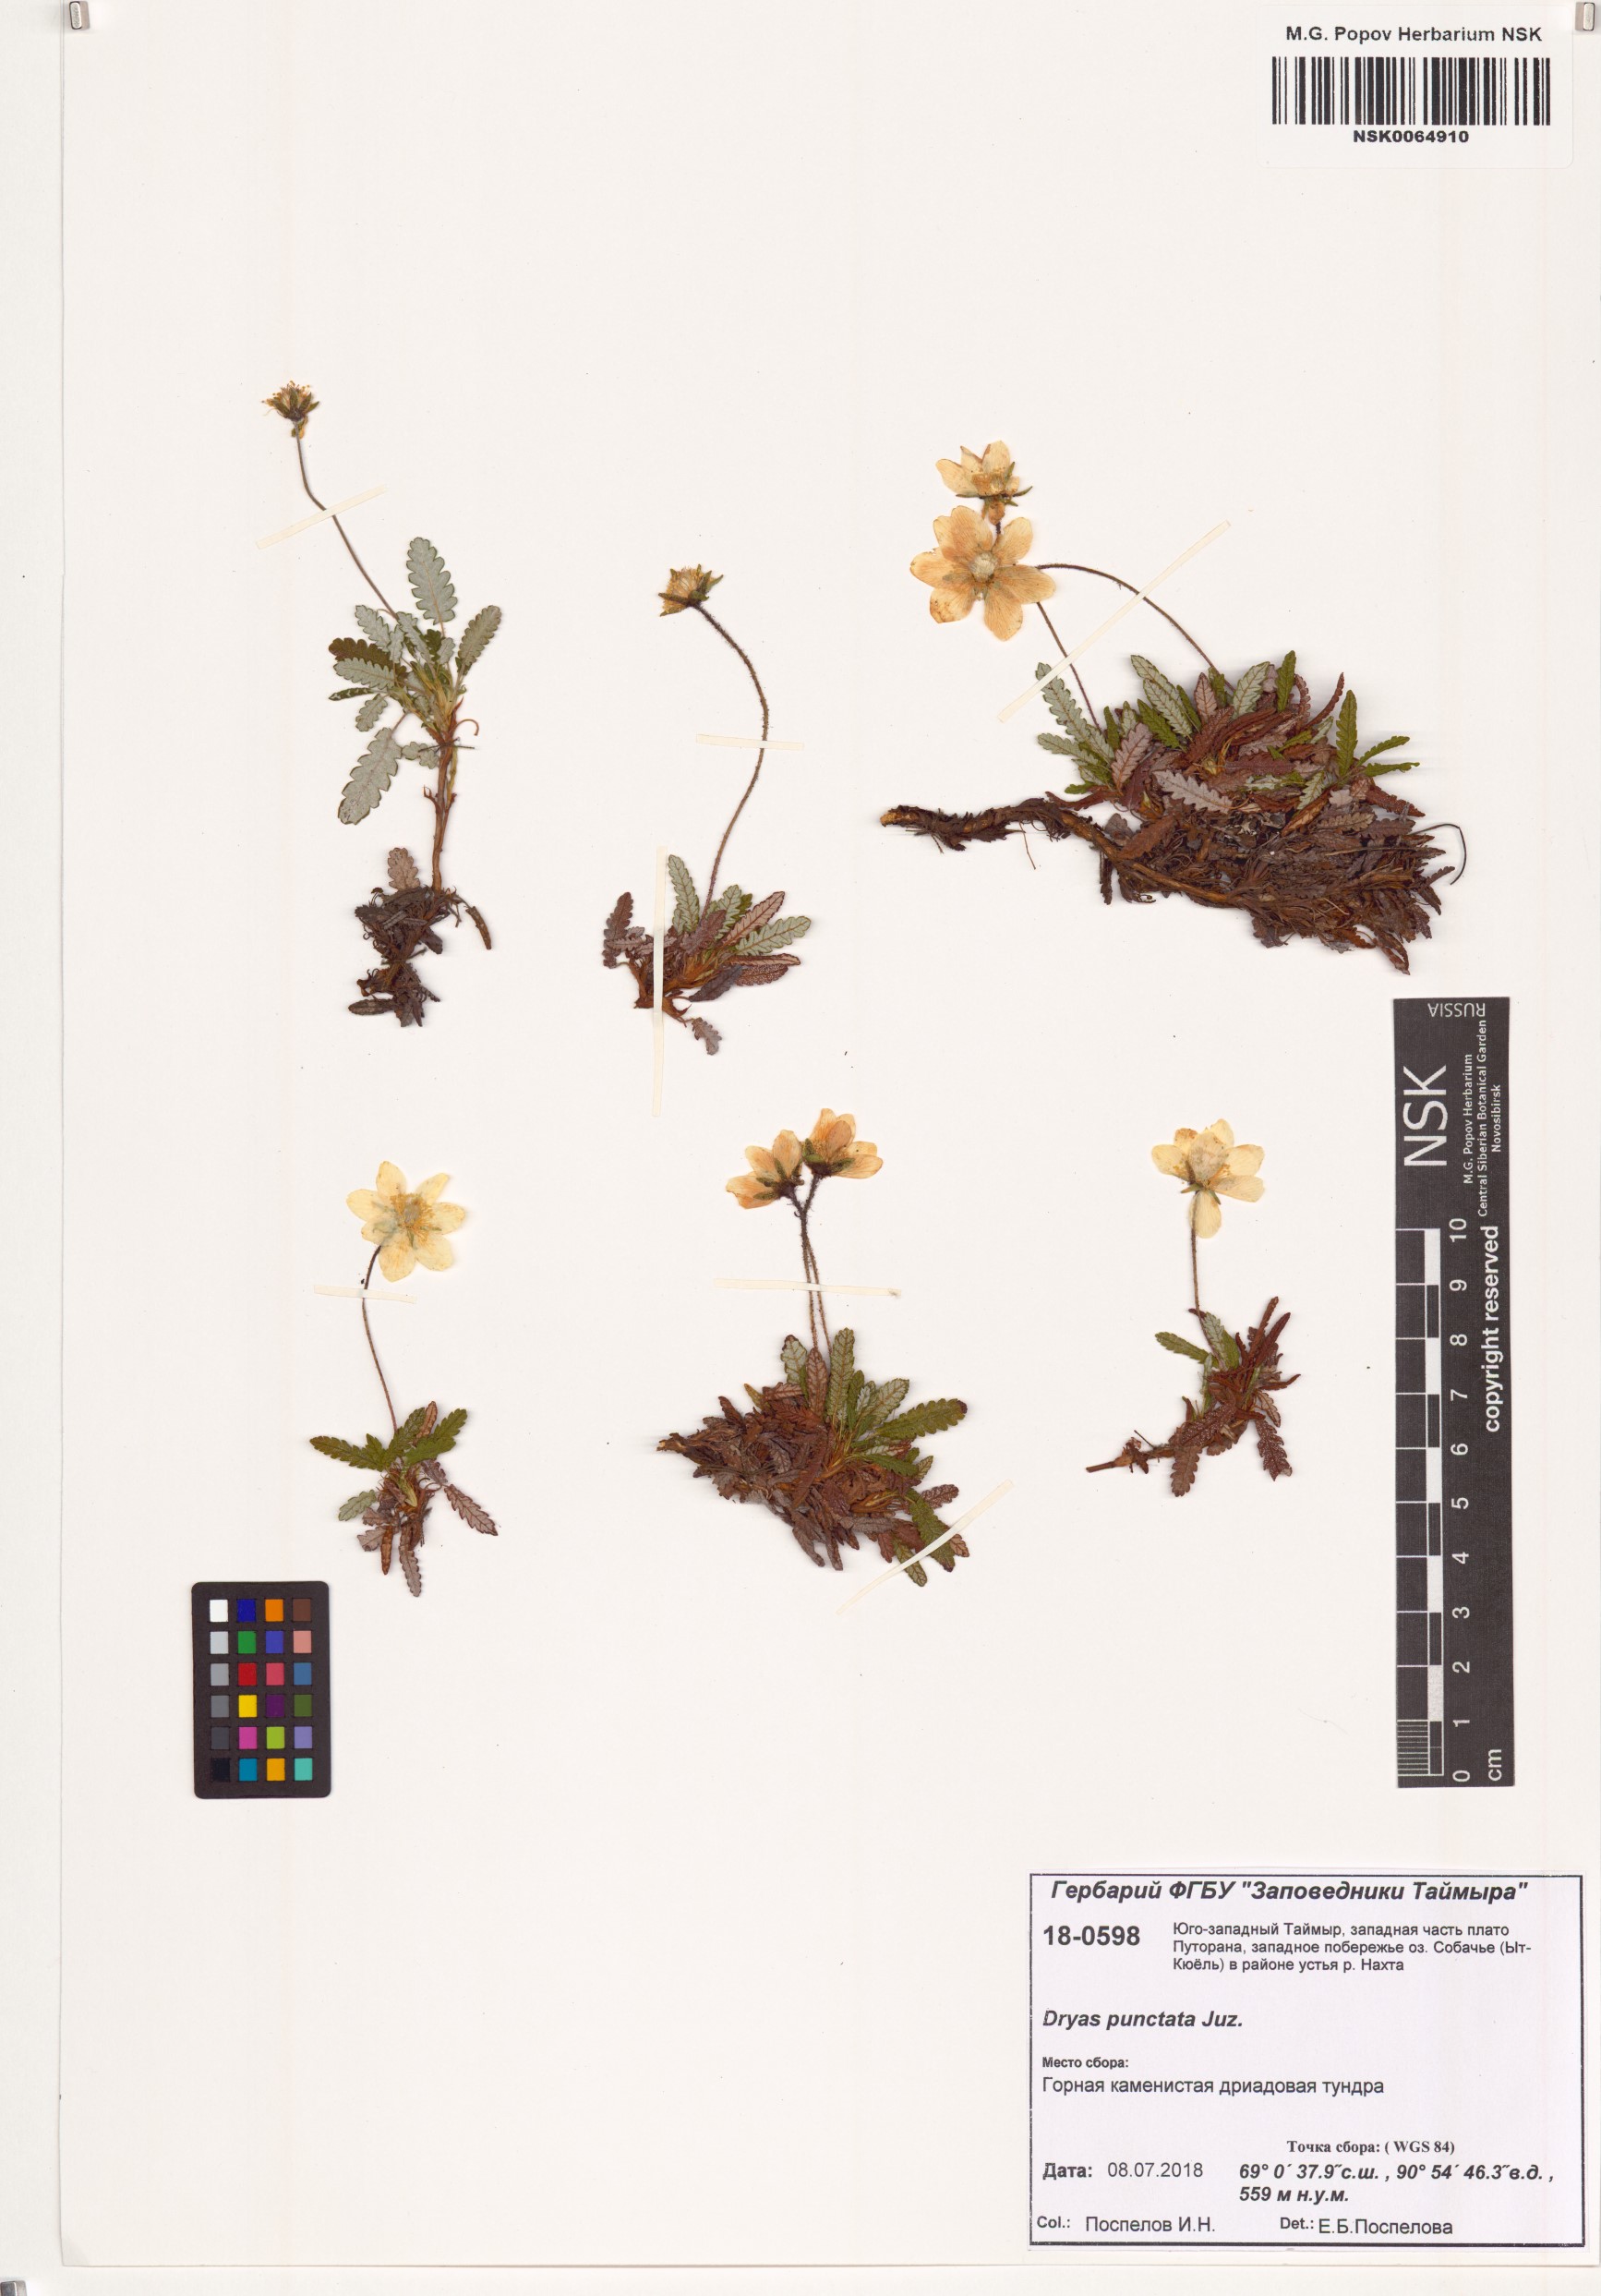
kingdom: Plantae
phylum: Tracheophyta
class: Magnoliopsida
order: Rosales
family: Rosaceae
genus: Dryas
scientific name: Dryas octopetala
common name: Eight-petal mountain-avens
